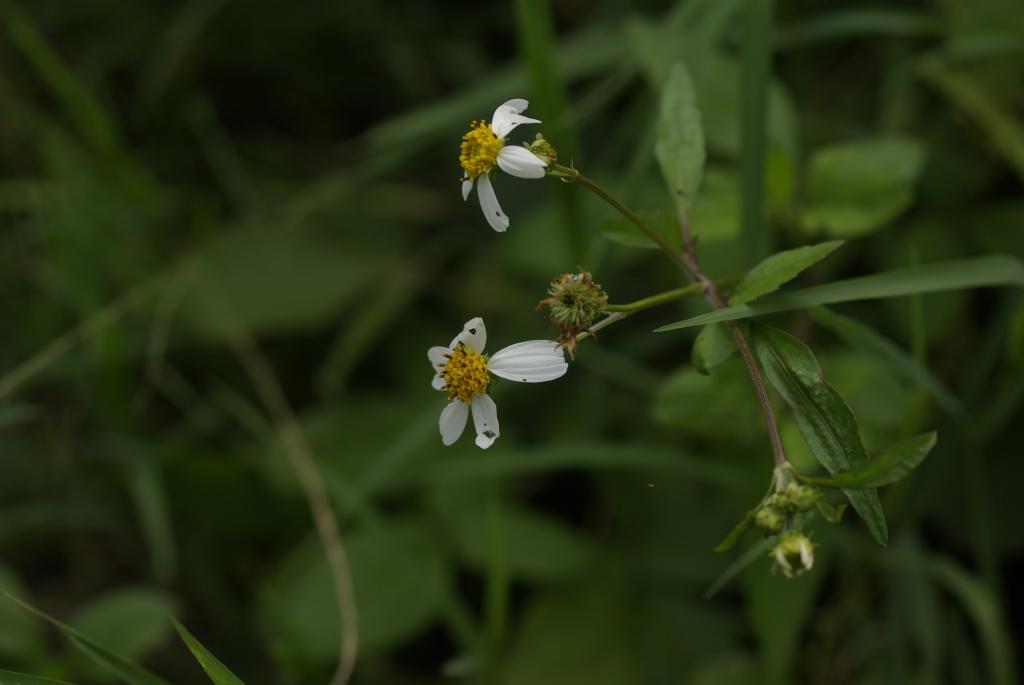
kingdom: Plantae
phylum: Tracheophyta
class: Magnoliopsida
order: Asterales
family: Asteraceae
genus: Bidens
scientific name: Bidens pilosa
